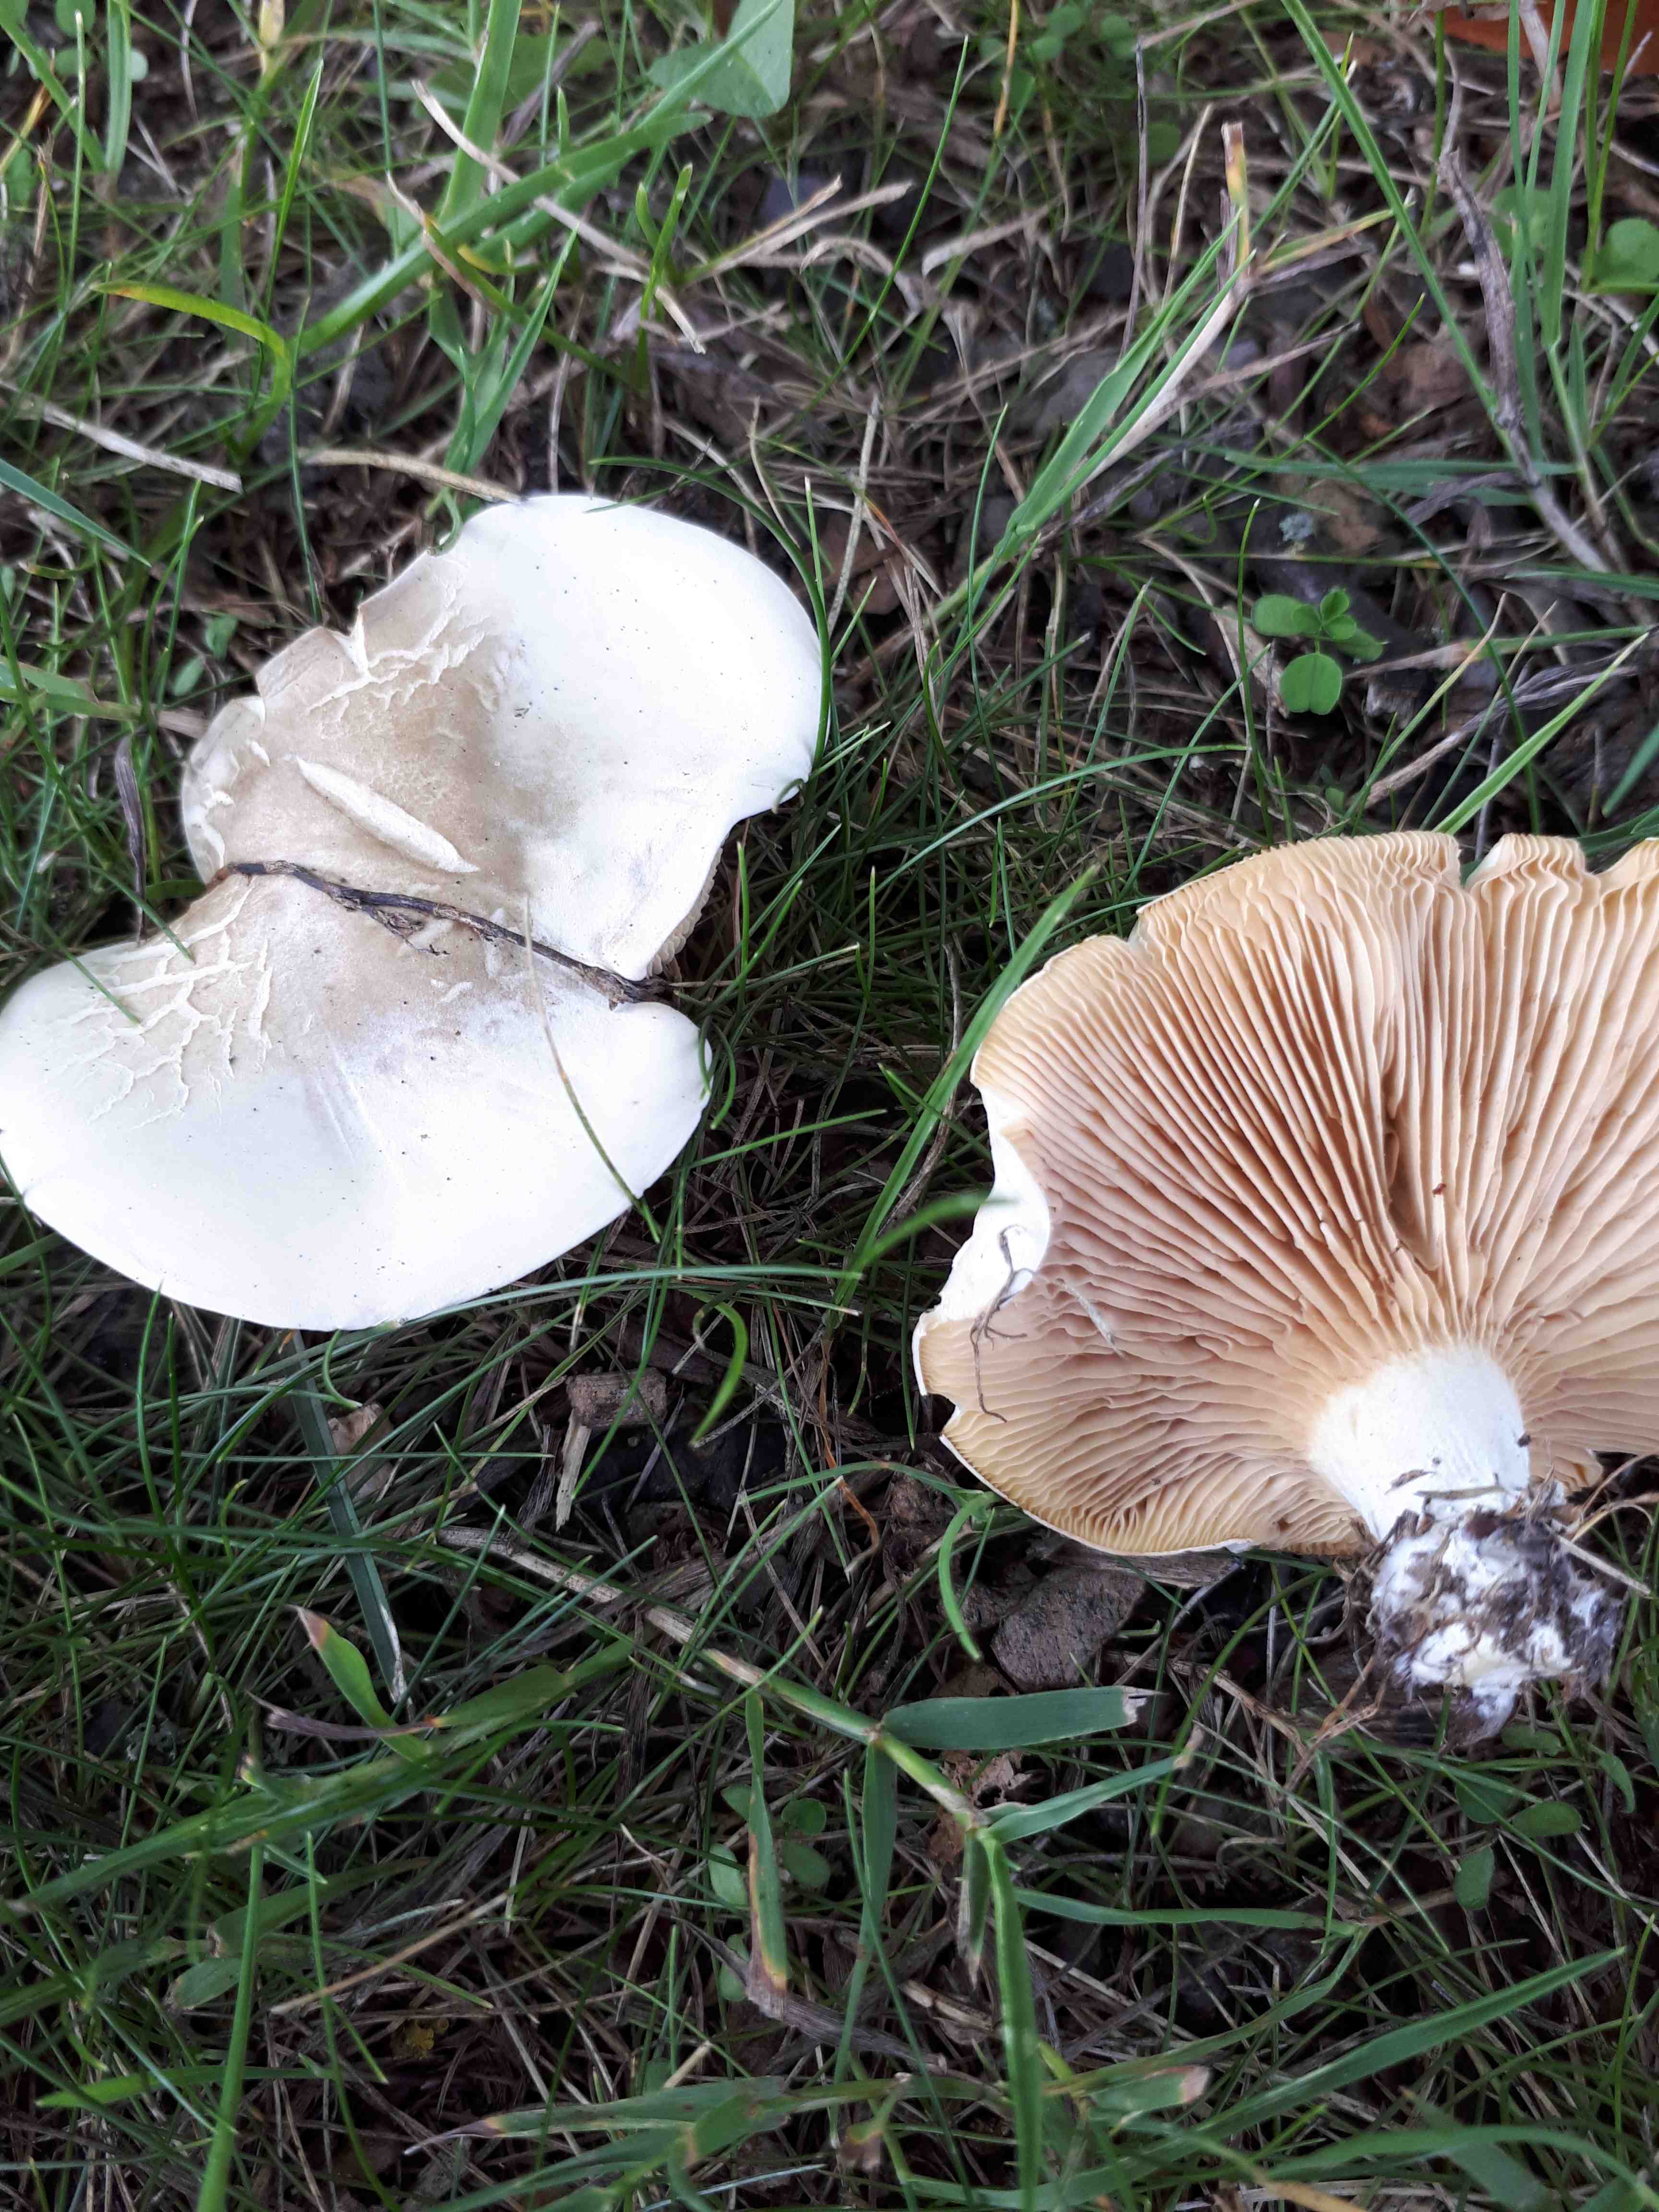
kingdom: Fungi
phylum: Basidiomycota
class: Agaricomycetes
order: Agaricales
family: Entolomataceae
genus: Clitopilus
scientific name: Clitopilus prunulus
